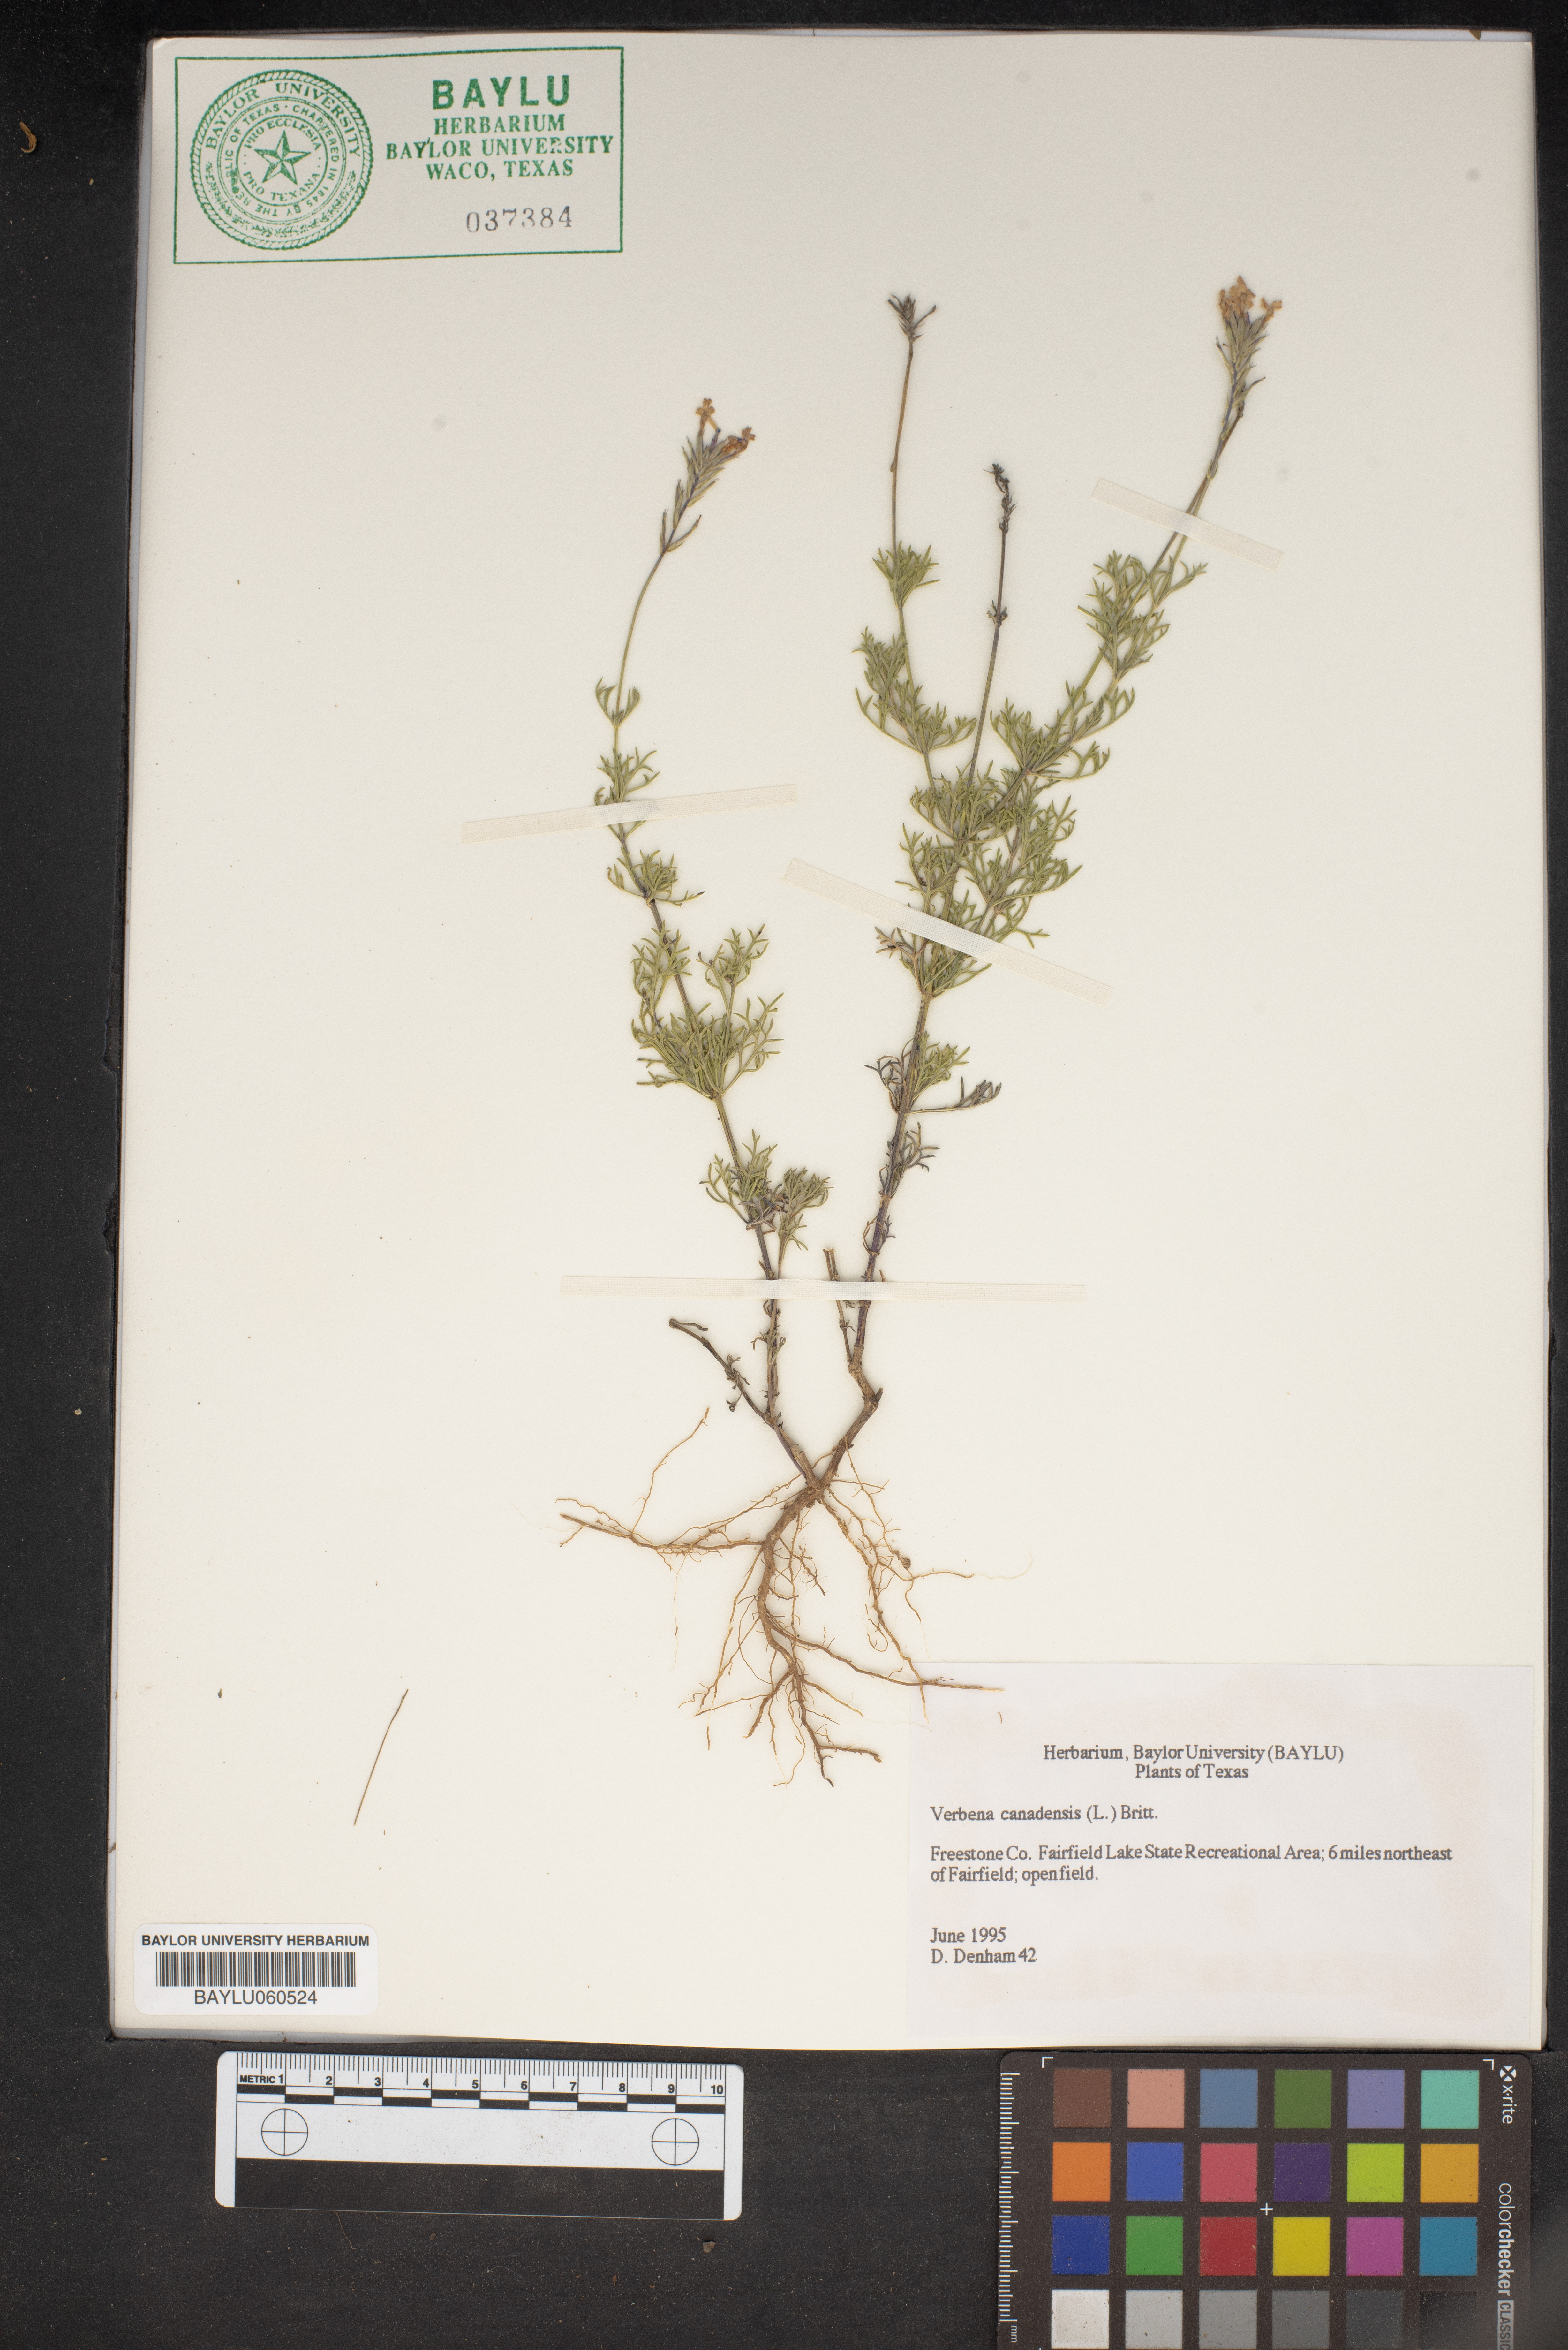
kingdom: Plantae
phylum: Tracheophyta
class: Magnoliopsida
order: Lamiales
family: Verbenaceae
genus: Verbena
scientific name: Verbena canadensis
